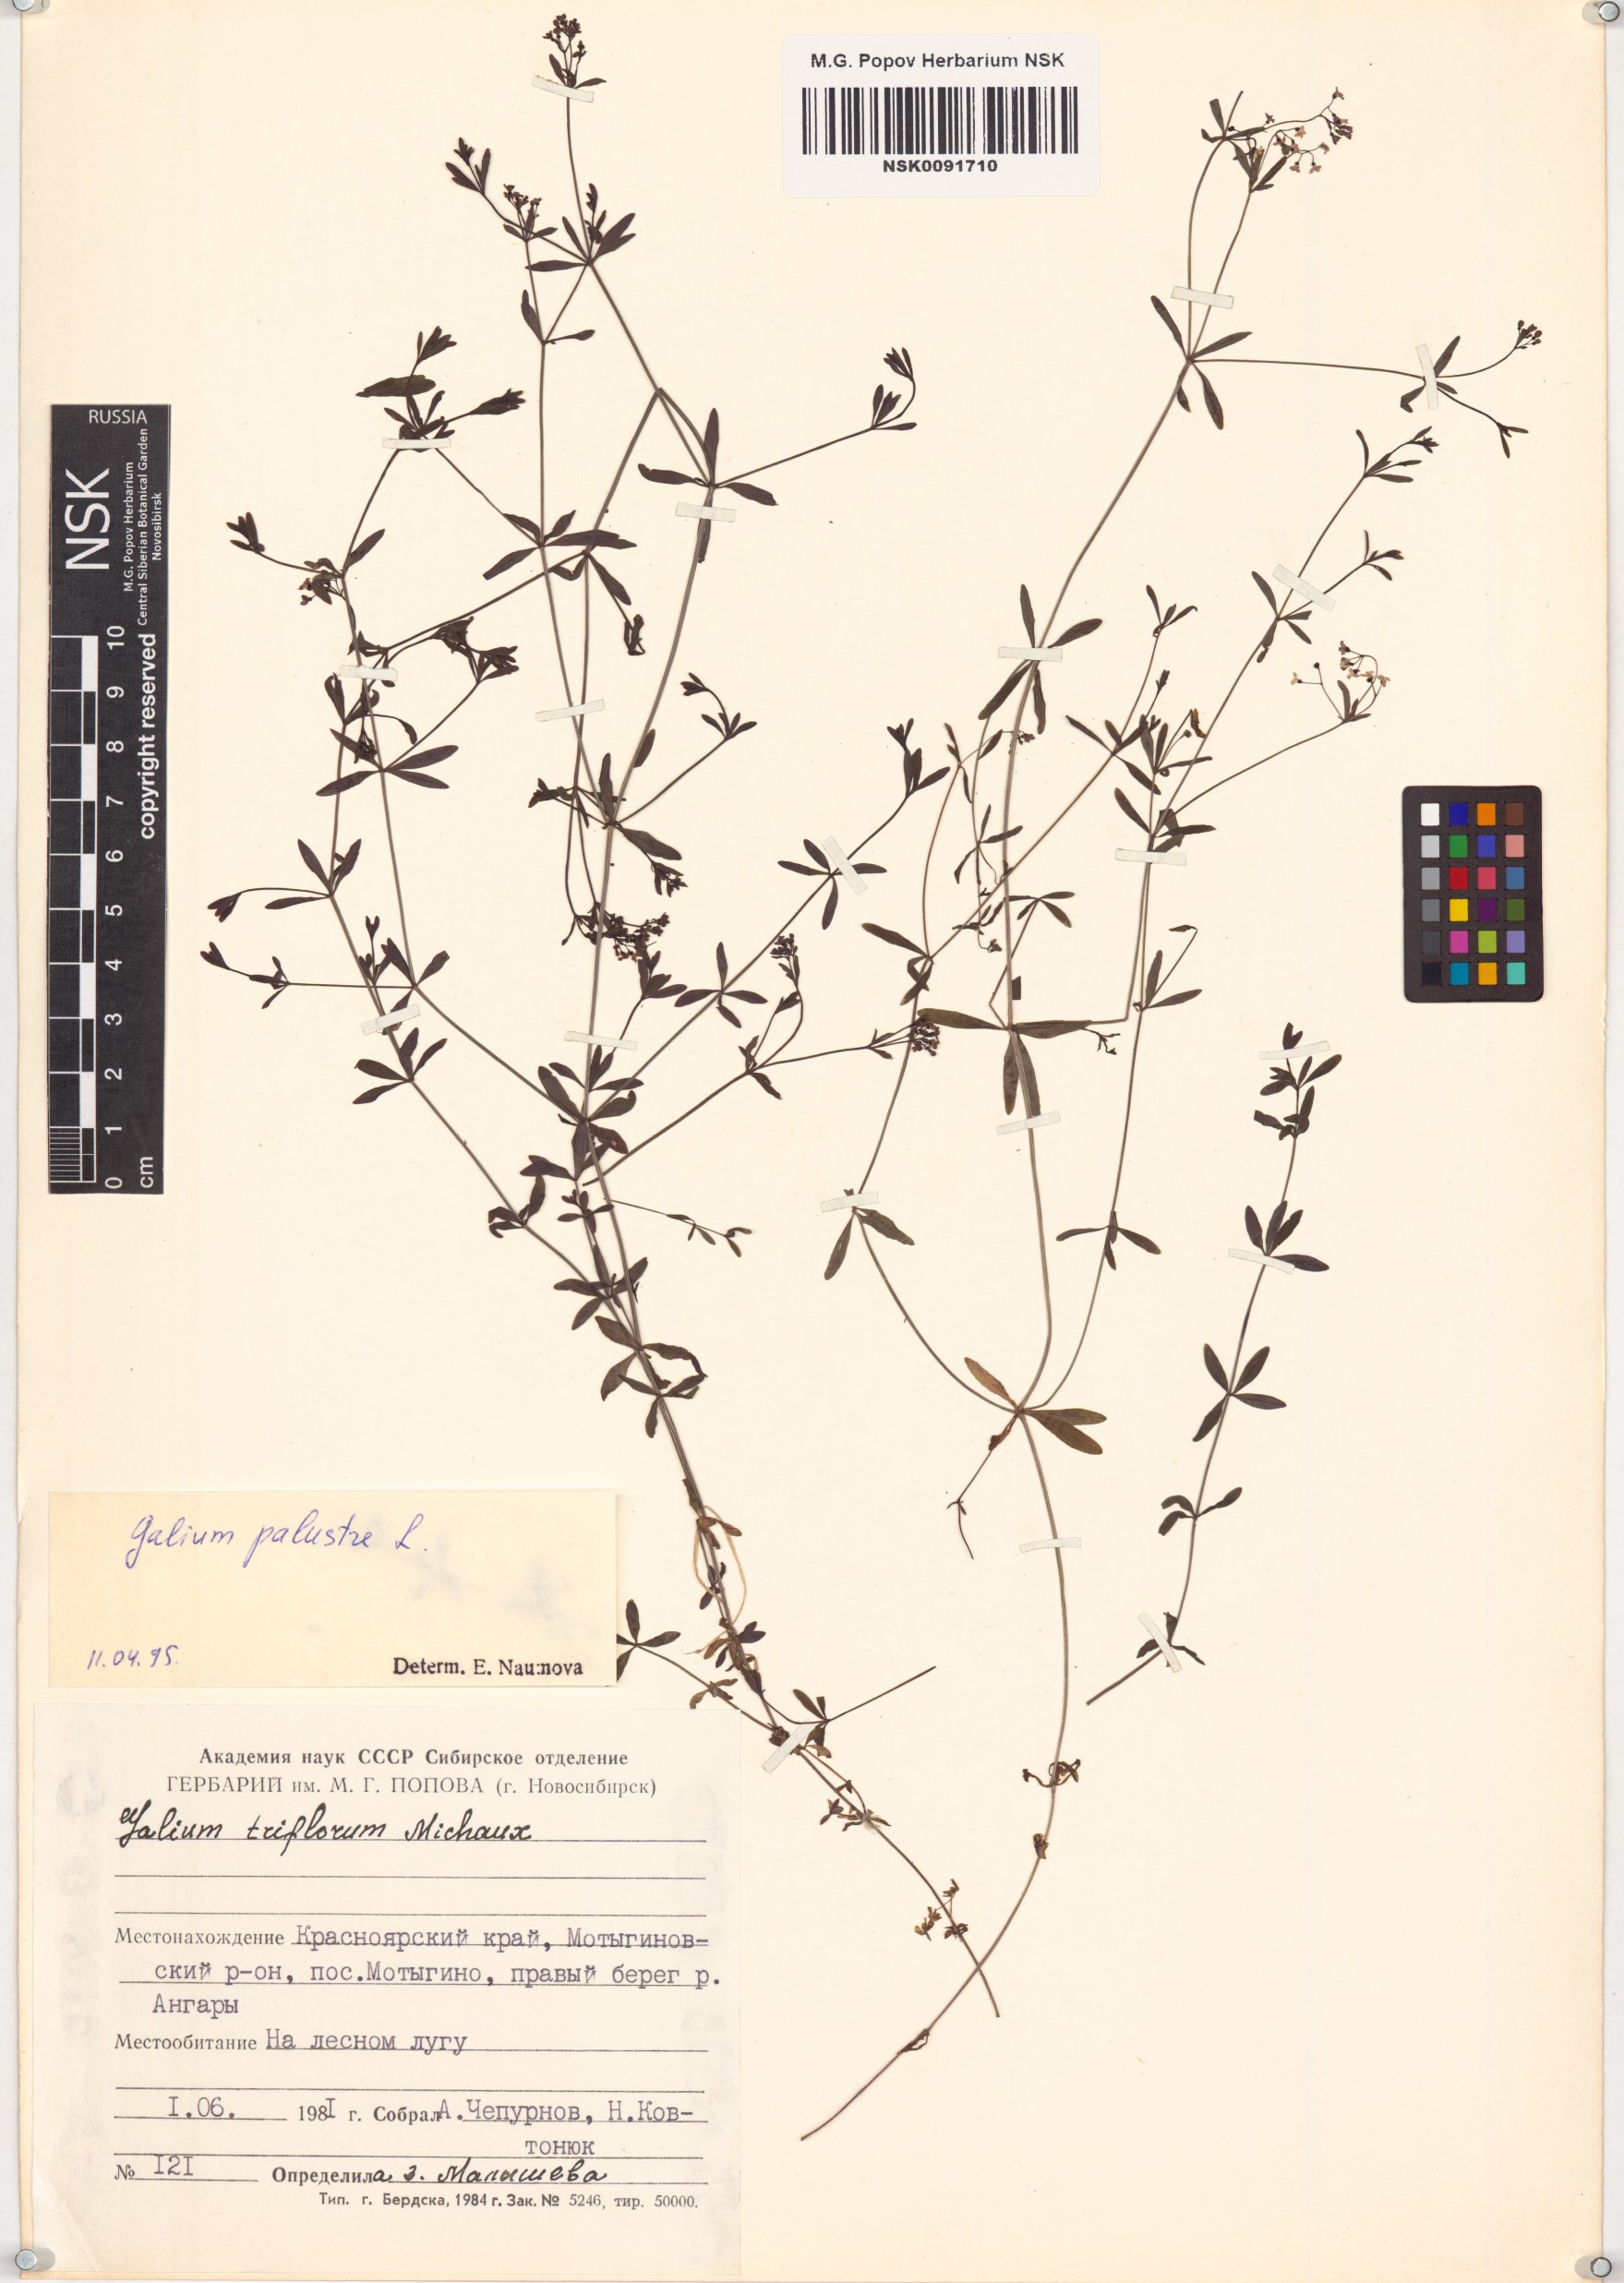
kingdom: Plantae
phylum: Tracheophyta
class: Magnoliopsida
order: Gentianales
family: Rubiaceae
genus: Galium
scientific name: Galium palustre
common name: Common marsh-bedstraw
